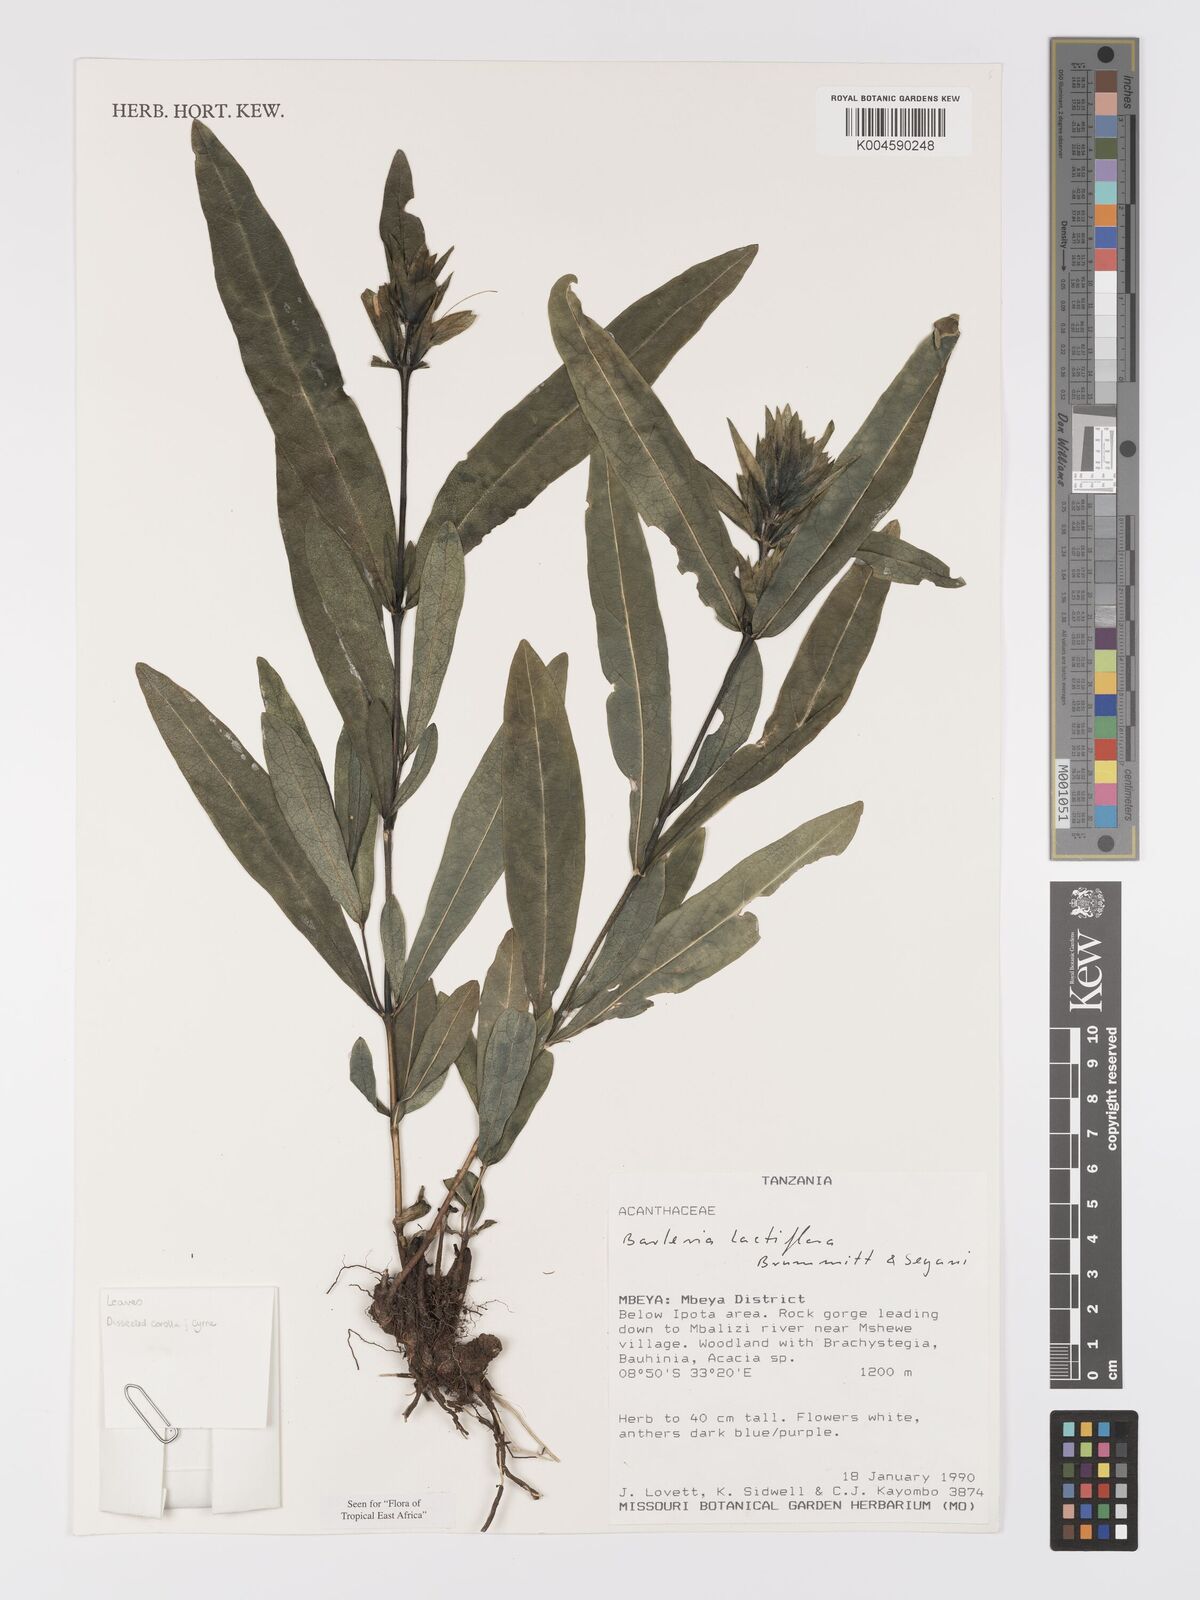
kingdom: Plantae
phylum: Tracheophyta
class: Magnoliopsida
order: Lamiales
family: Acanthaceae
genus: Barleria
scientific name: Barleria lactiflora
